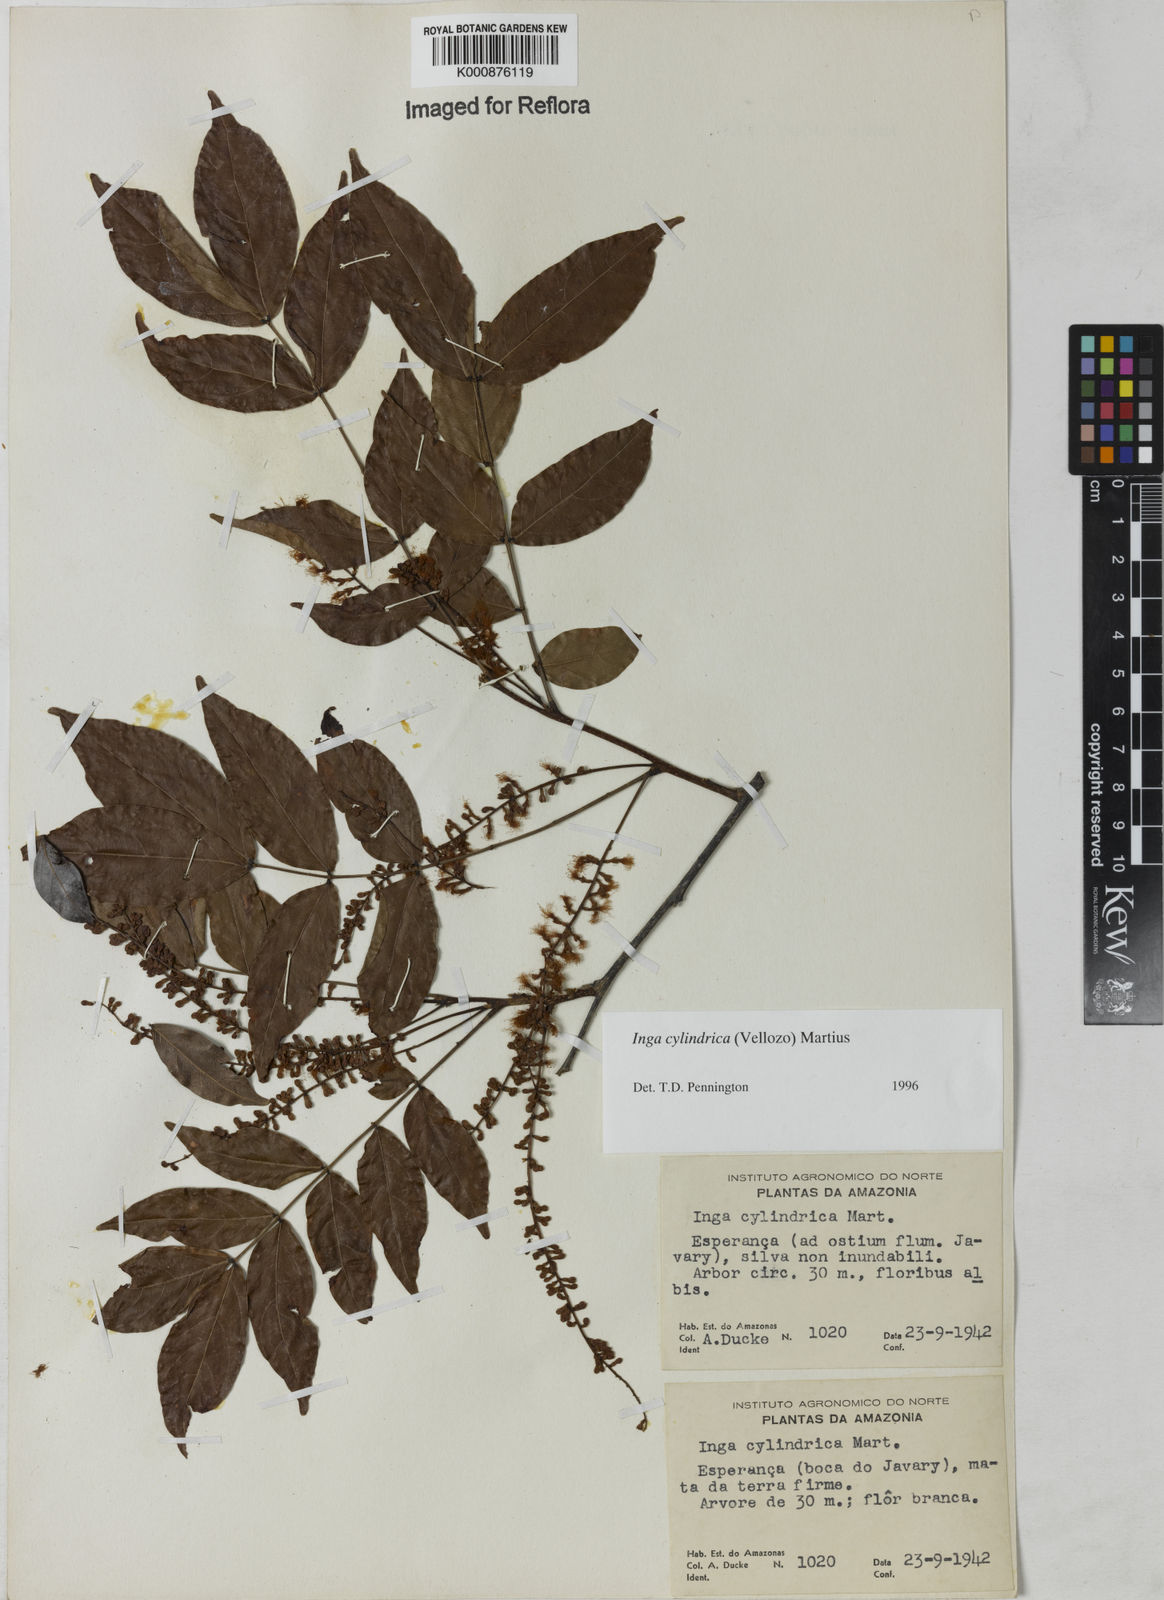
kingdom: Plantae
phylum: Tracheophyta
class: Magnoliopsida
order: Fabales
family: Fabaceae
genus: Inga
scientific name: Inga cylindrica
